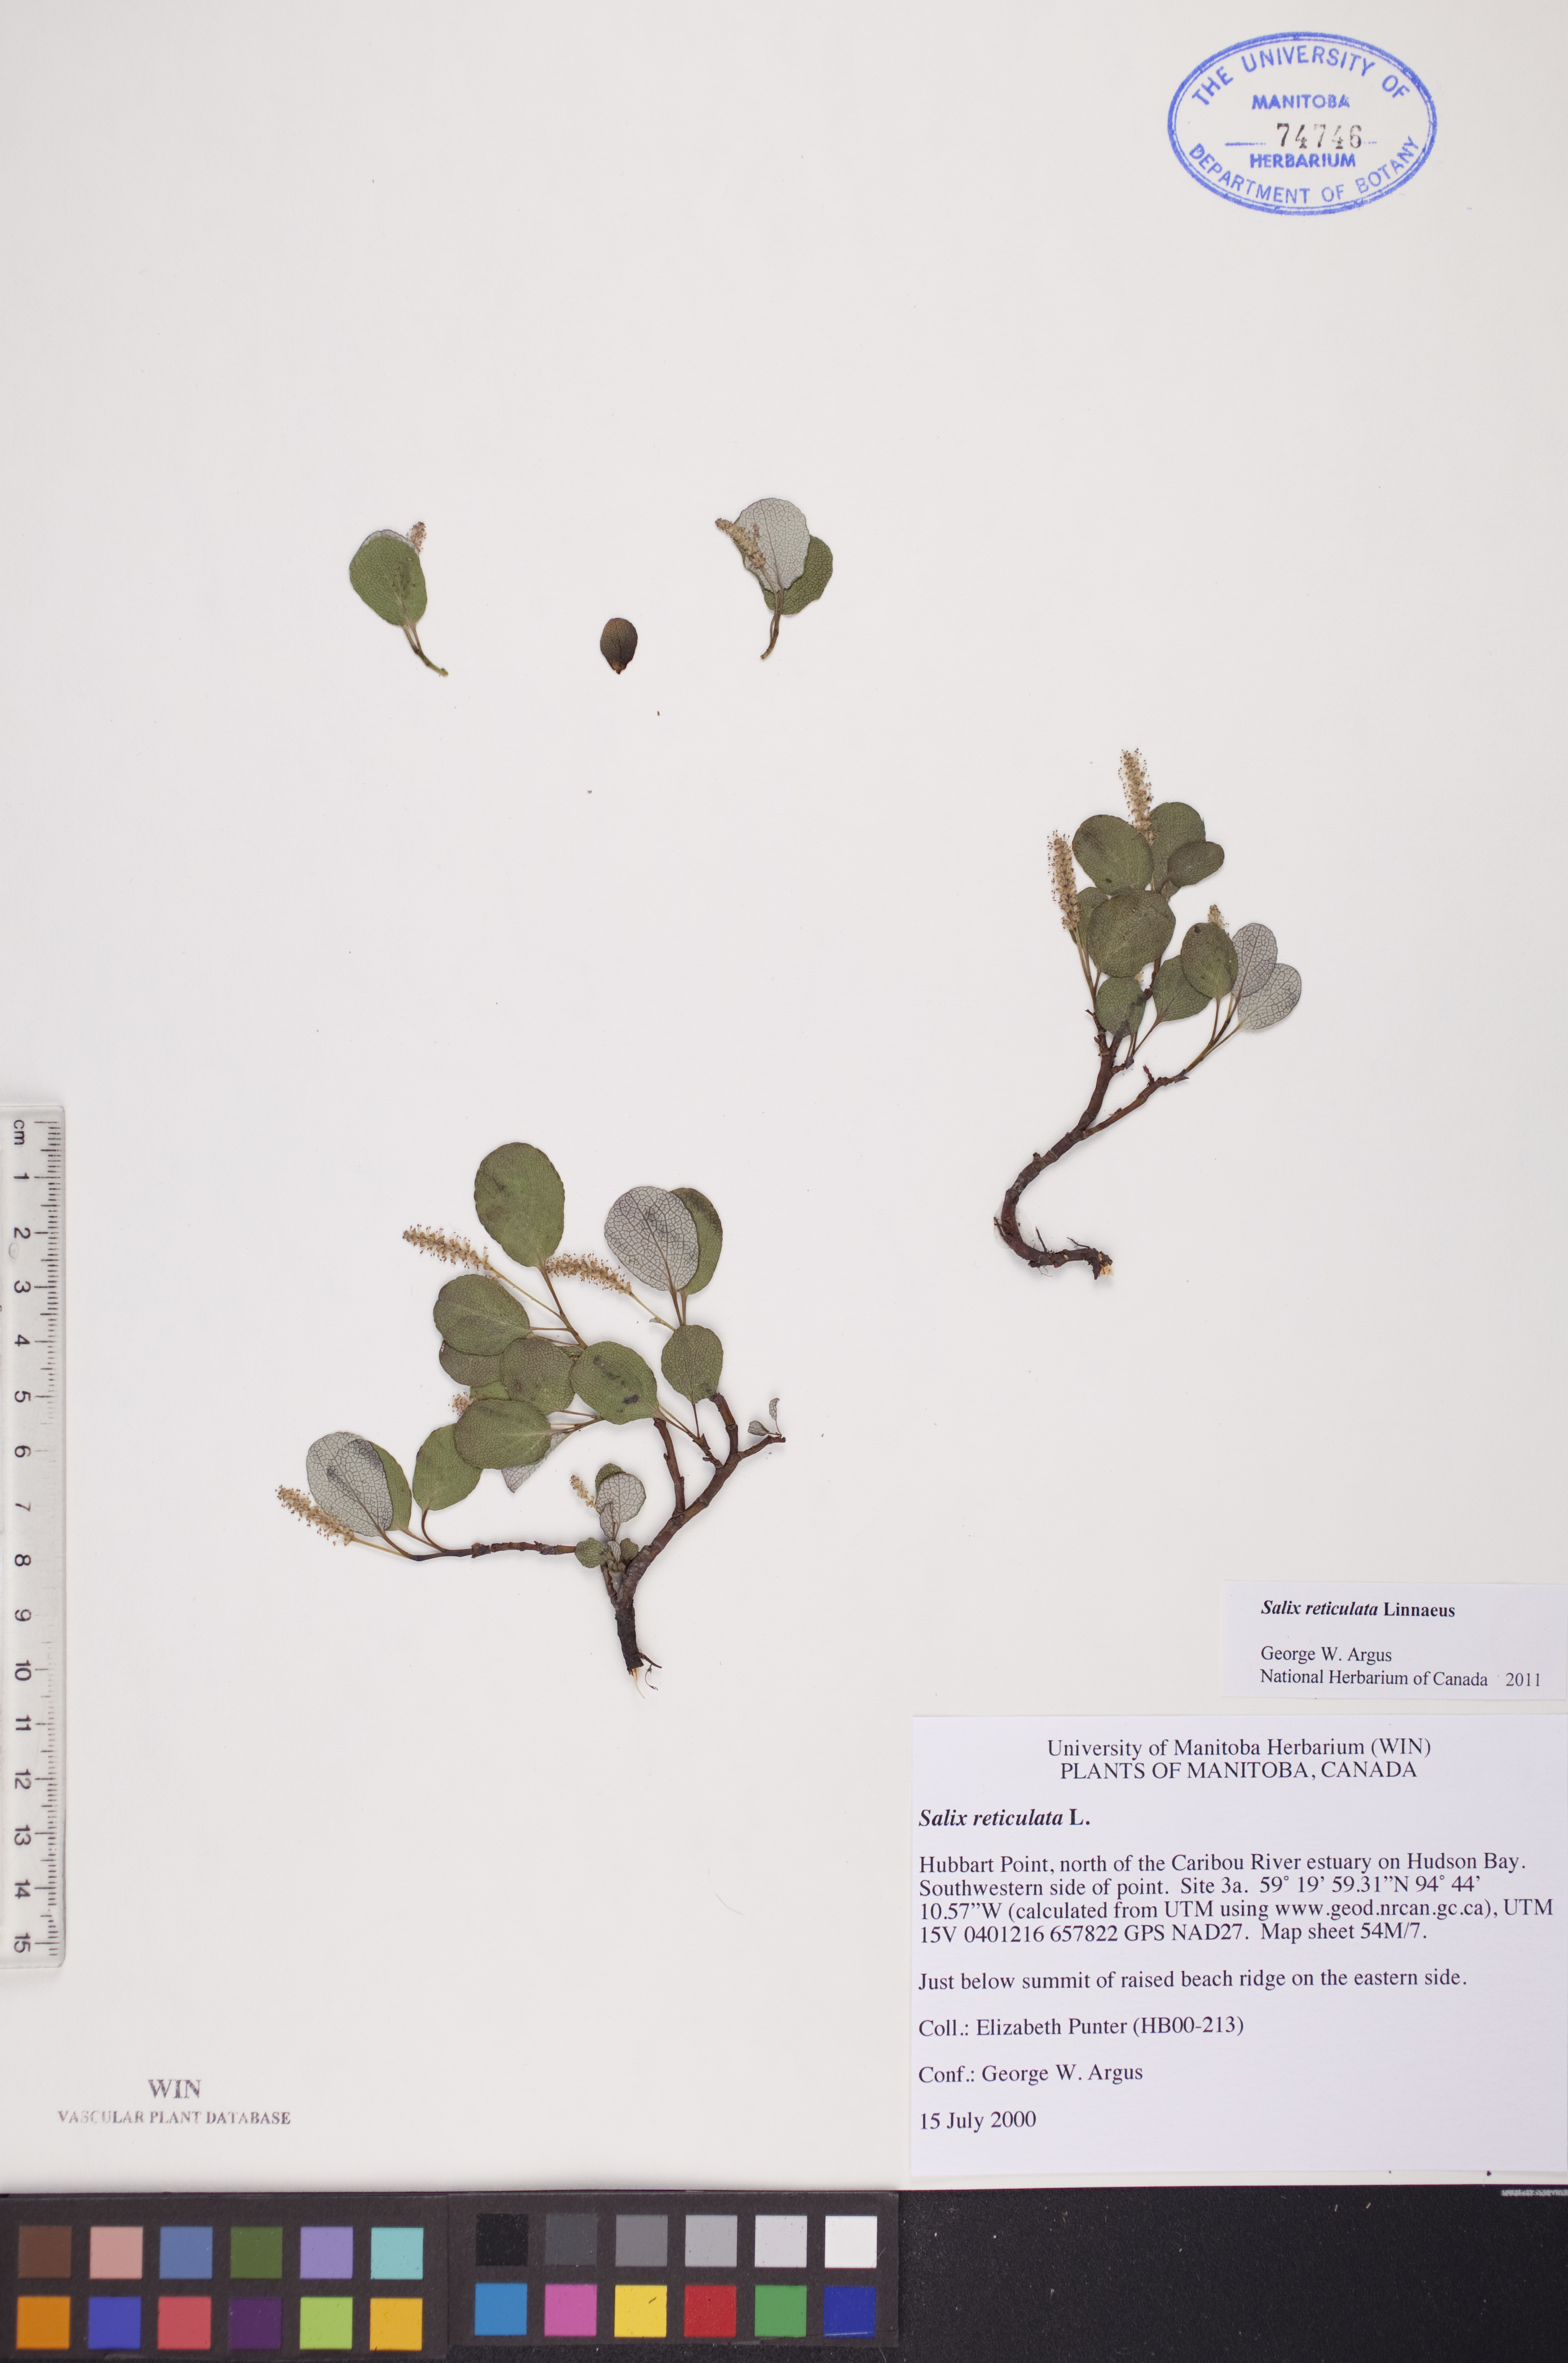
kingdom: Plantae
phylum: Tracheophyta
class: Magnoliopsida
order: Malpighiales
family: Salicaceae
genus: Salix
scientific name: Salix reticulata
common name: Net-leaved willow
